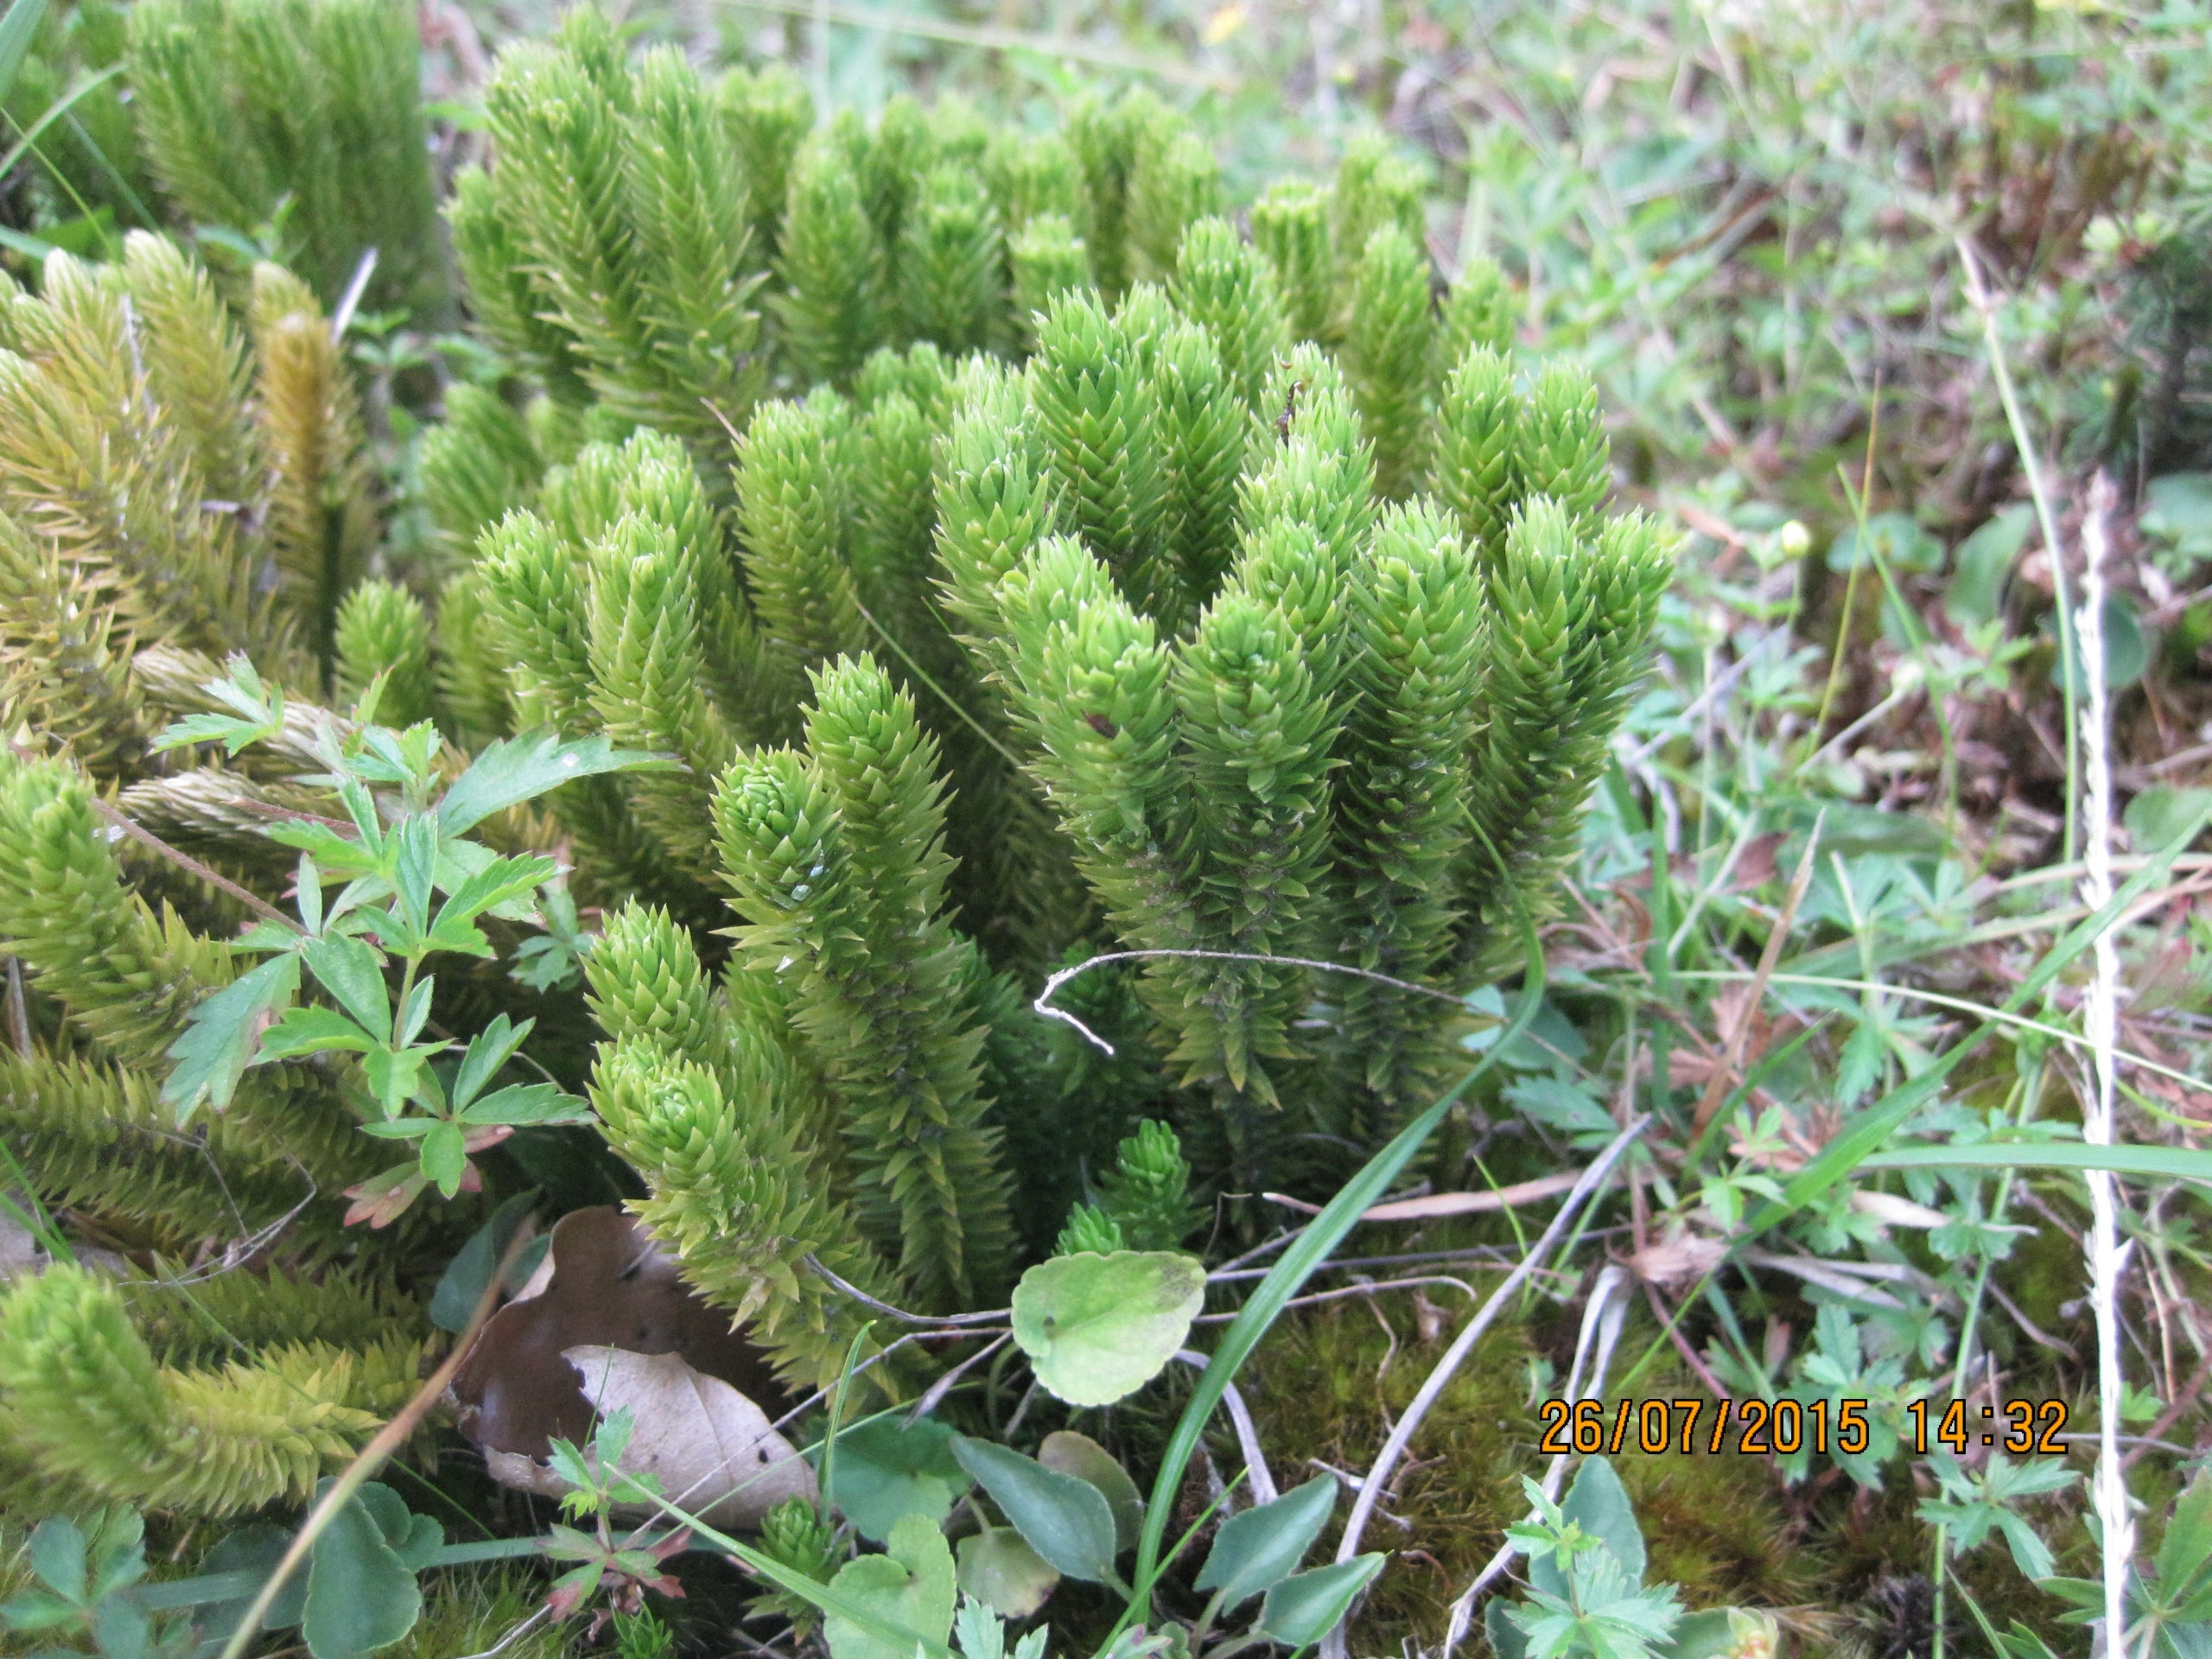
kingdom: Plantae
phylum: Tracheophyta
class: Lycopodiopsida
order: Lycopodiales
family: Lycopodiaceae
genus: Huperzia
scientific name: Huperzia selago
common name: Otteradet ulvefod
